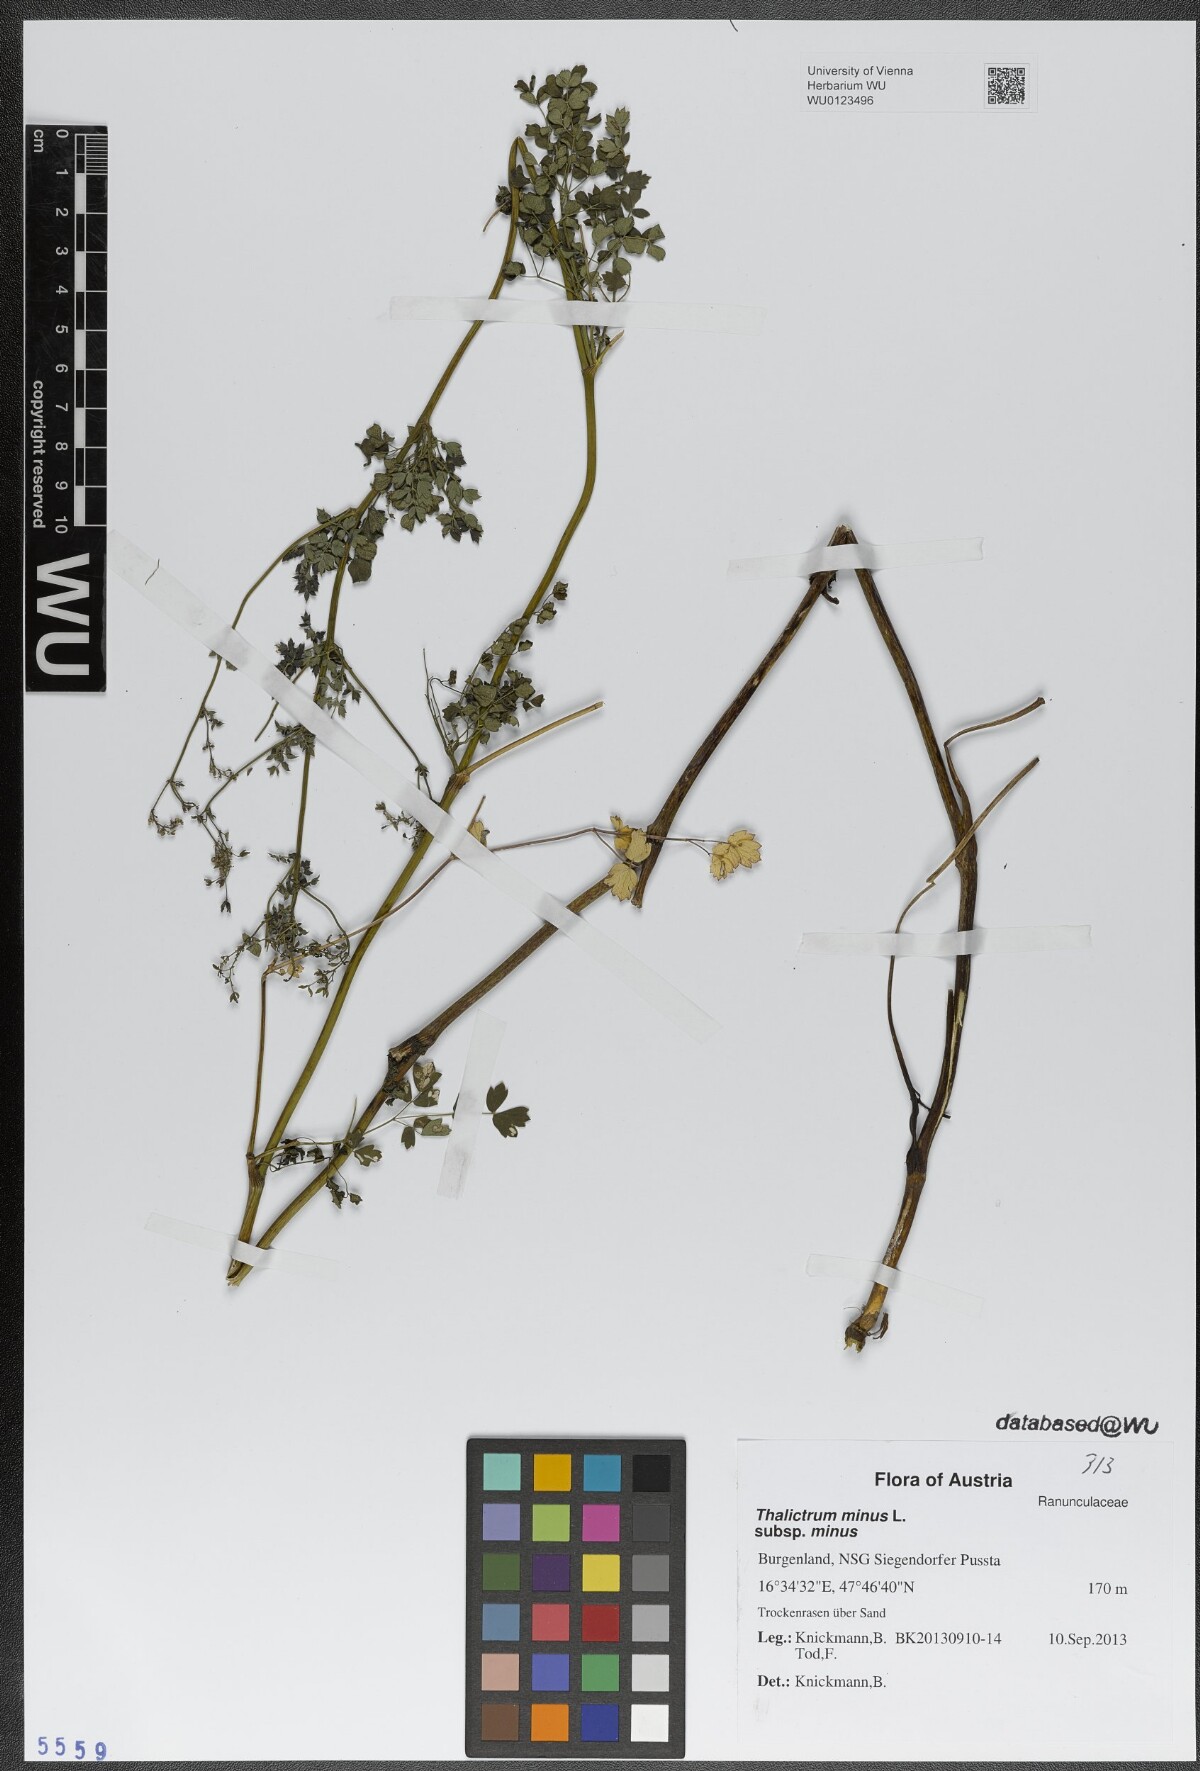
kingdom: Plantae
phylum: Tracheophyta
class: Magnoliopsida
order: Ranunculales
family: Ranunculaceae
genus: Thalictrum
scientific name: Thalictrum minus
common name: Lesser meadow-rue
